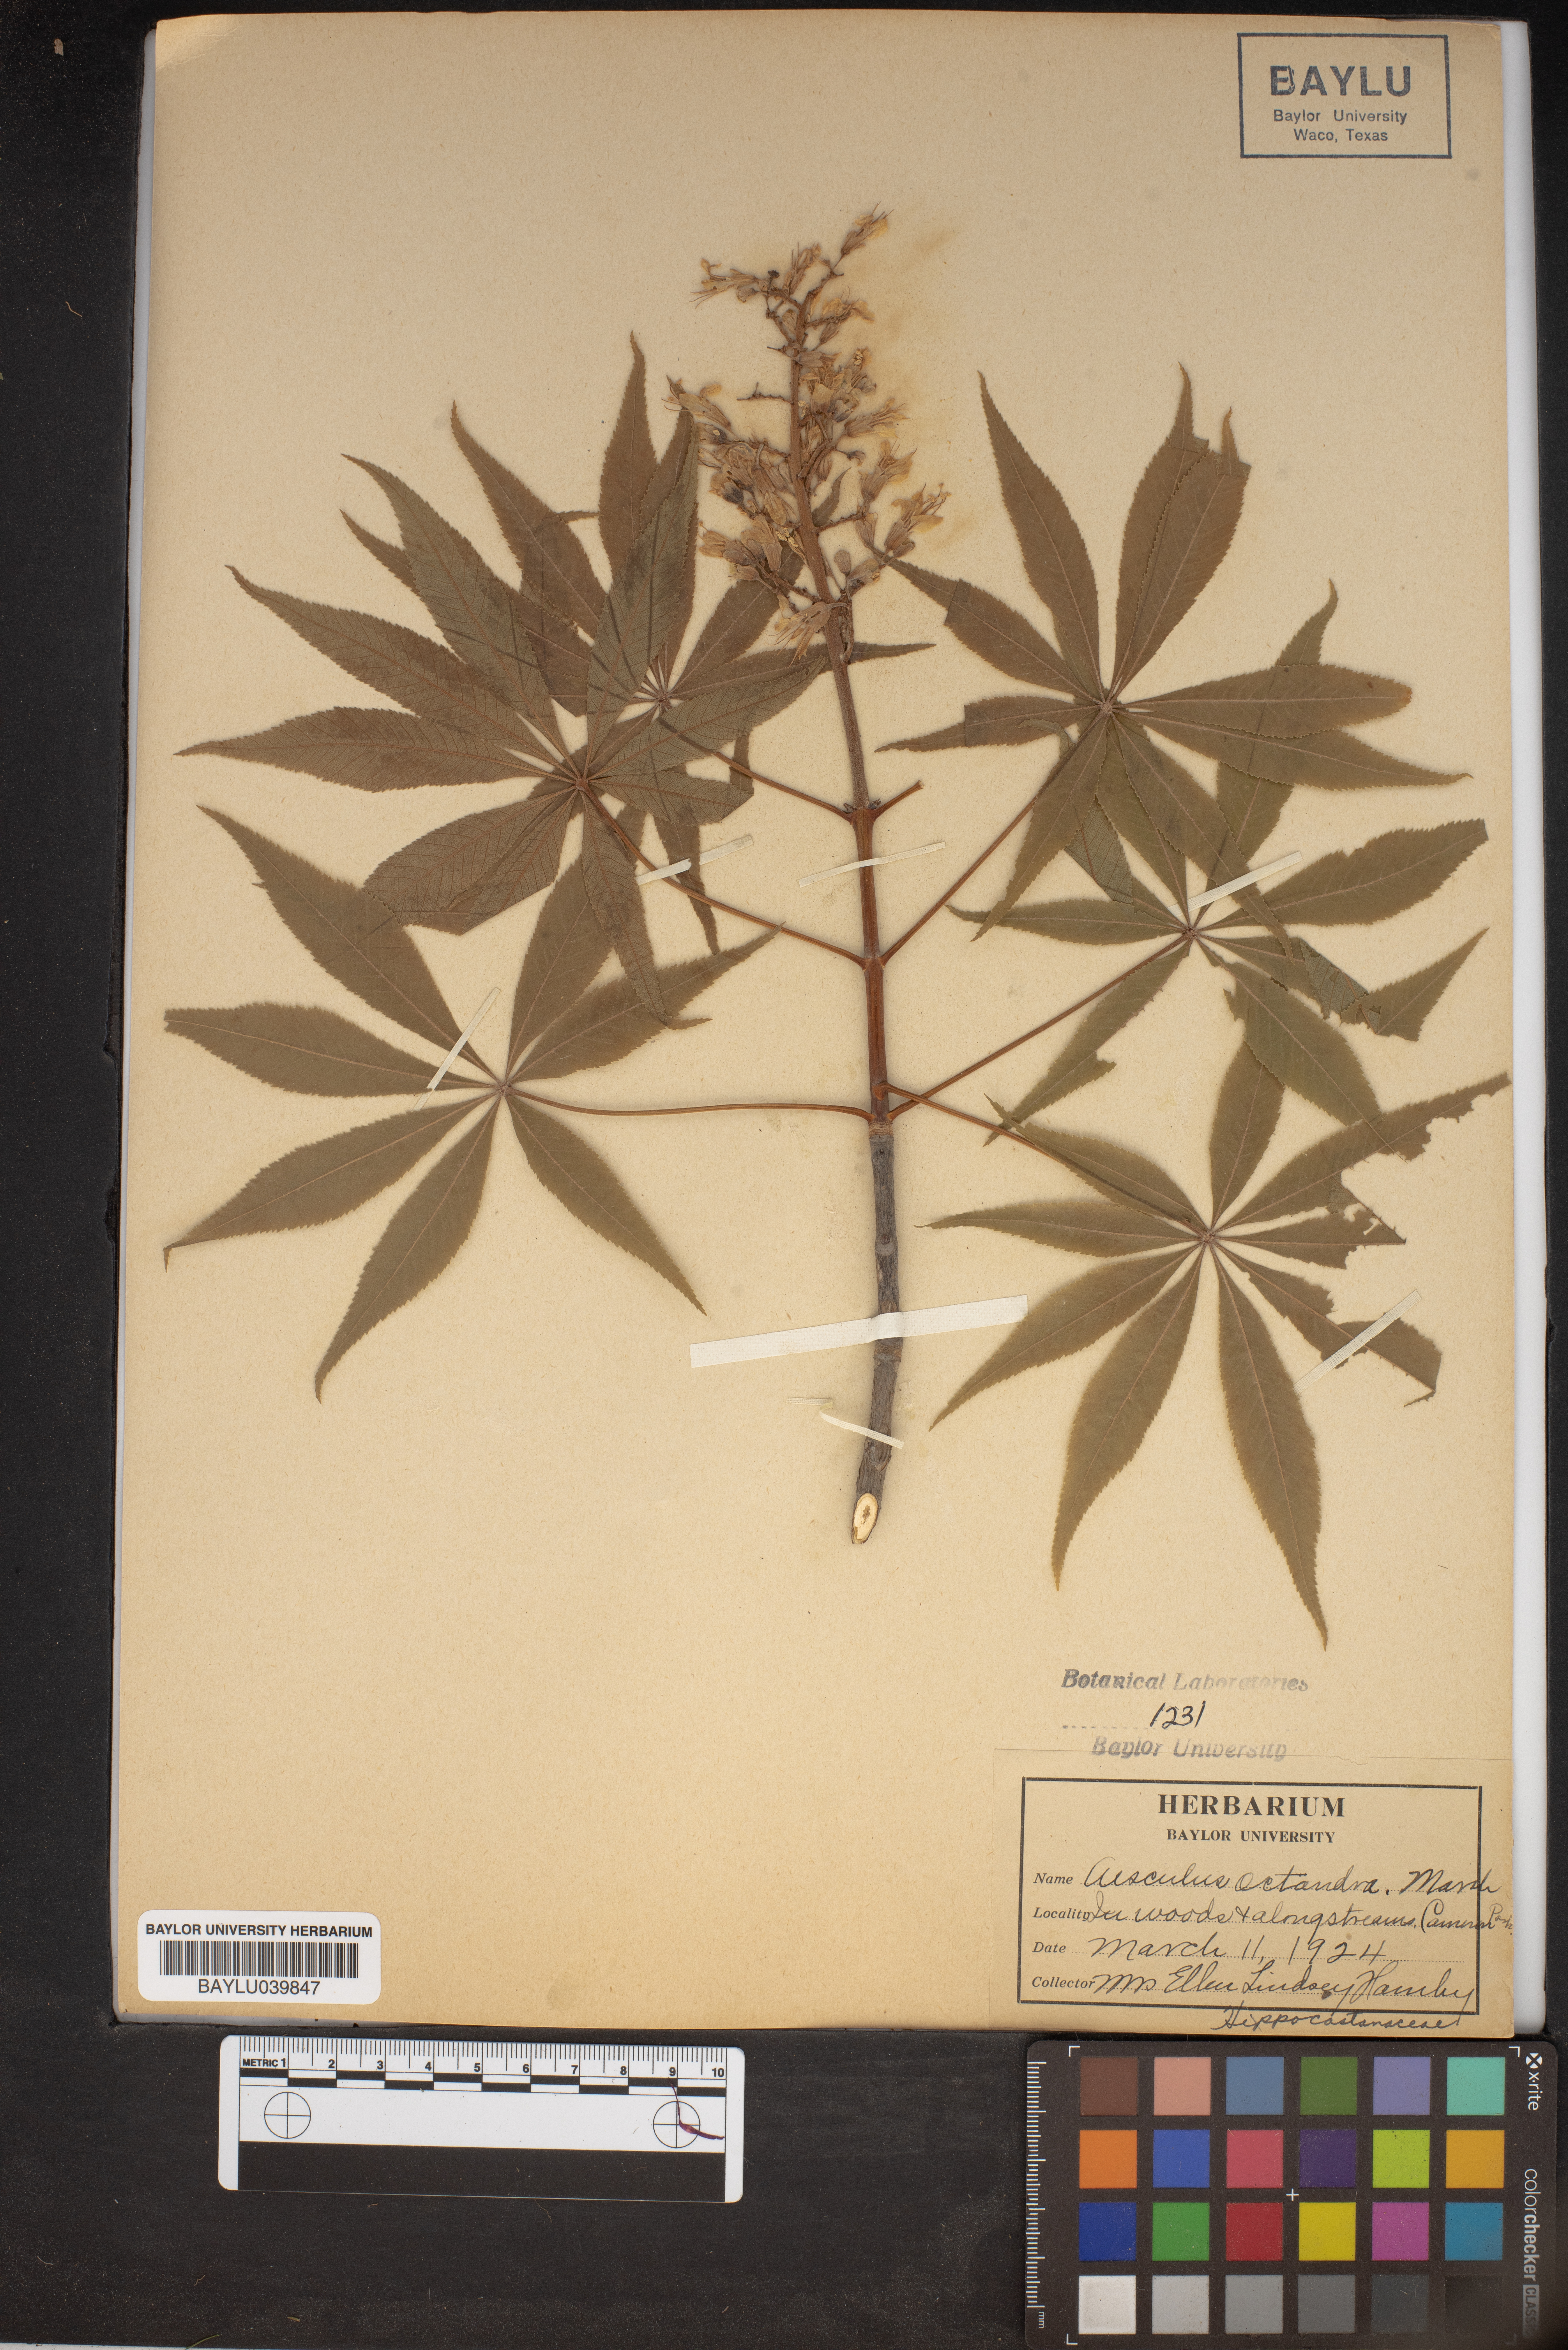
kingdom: Plantae
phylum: Tracheophyta
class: Magnoliopsida
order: Sapindales
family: Sapindaceae
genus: Aesculus
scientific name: Aesculus flava
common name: Yellow buckeye
